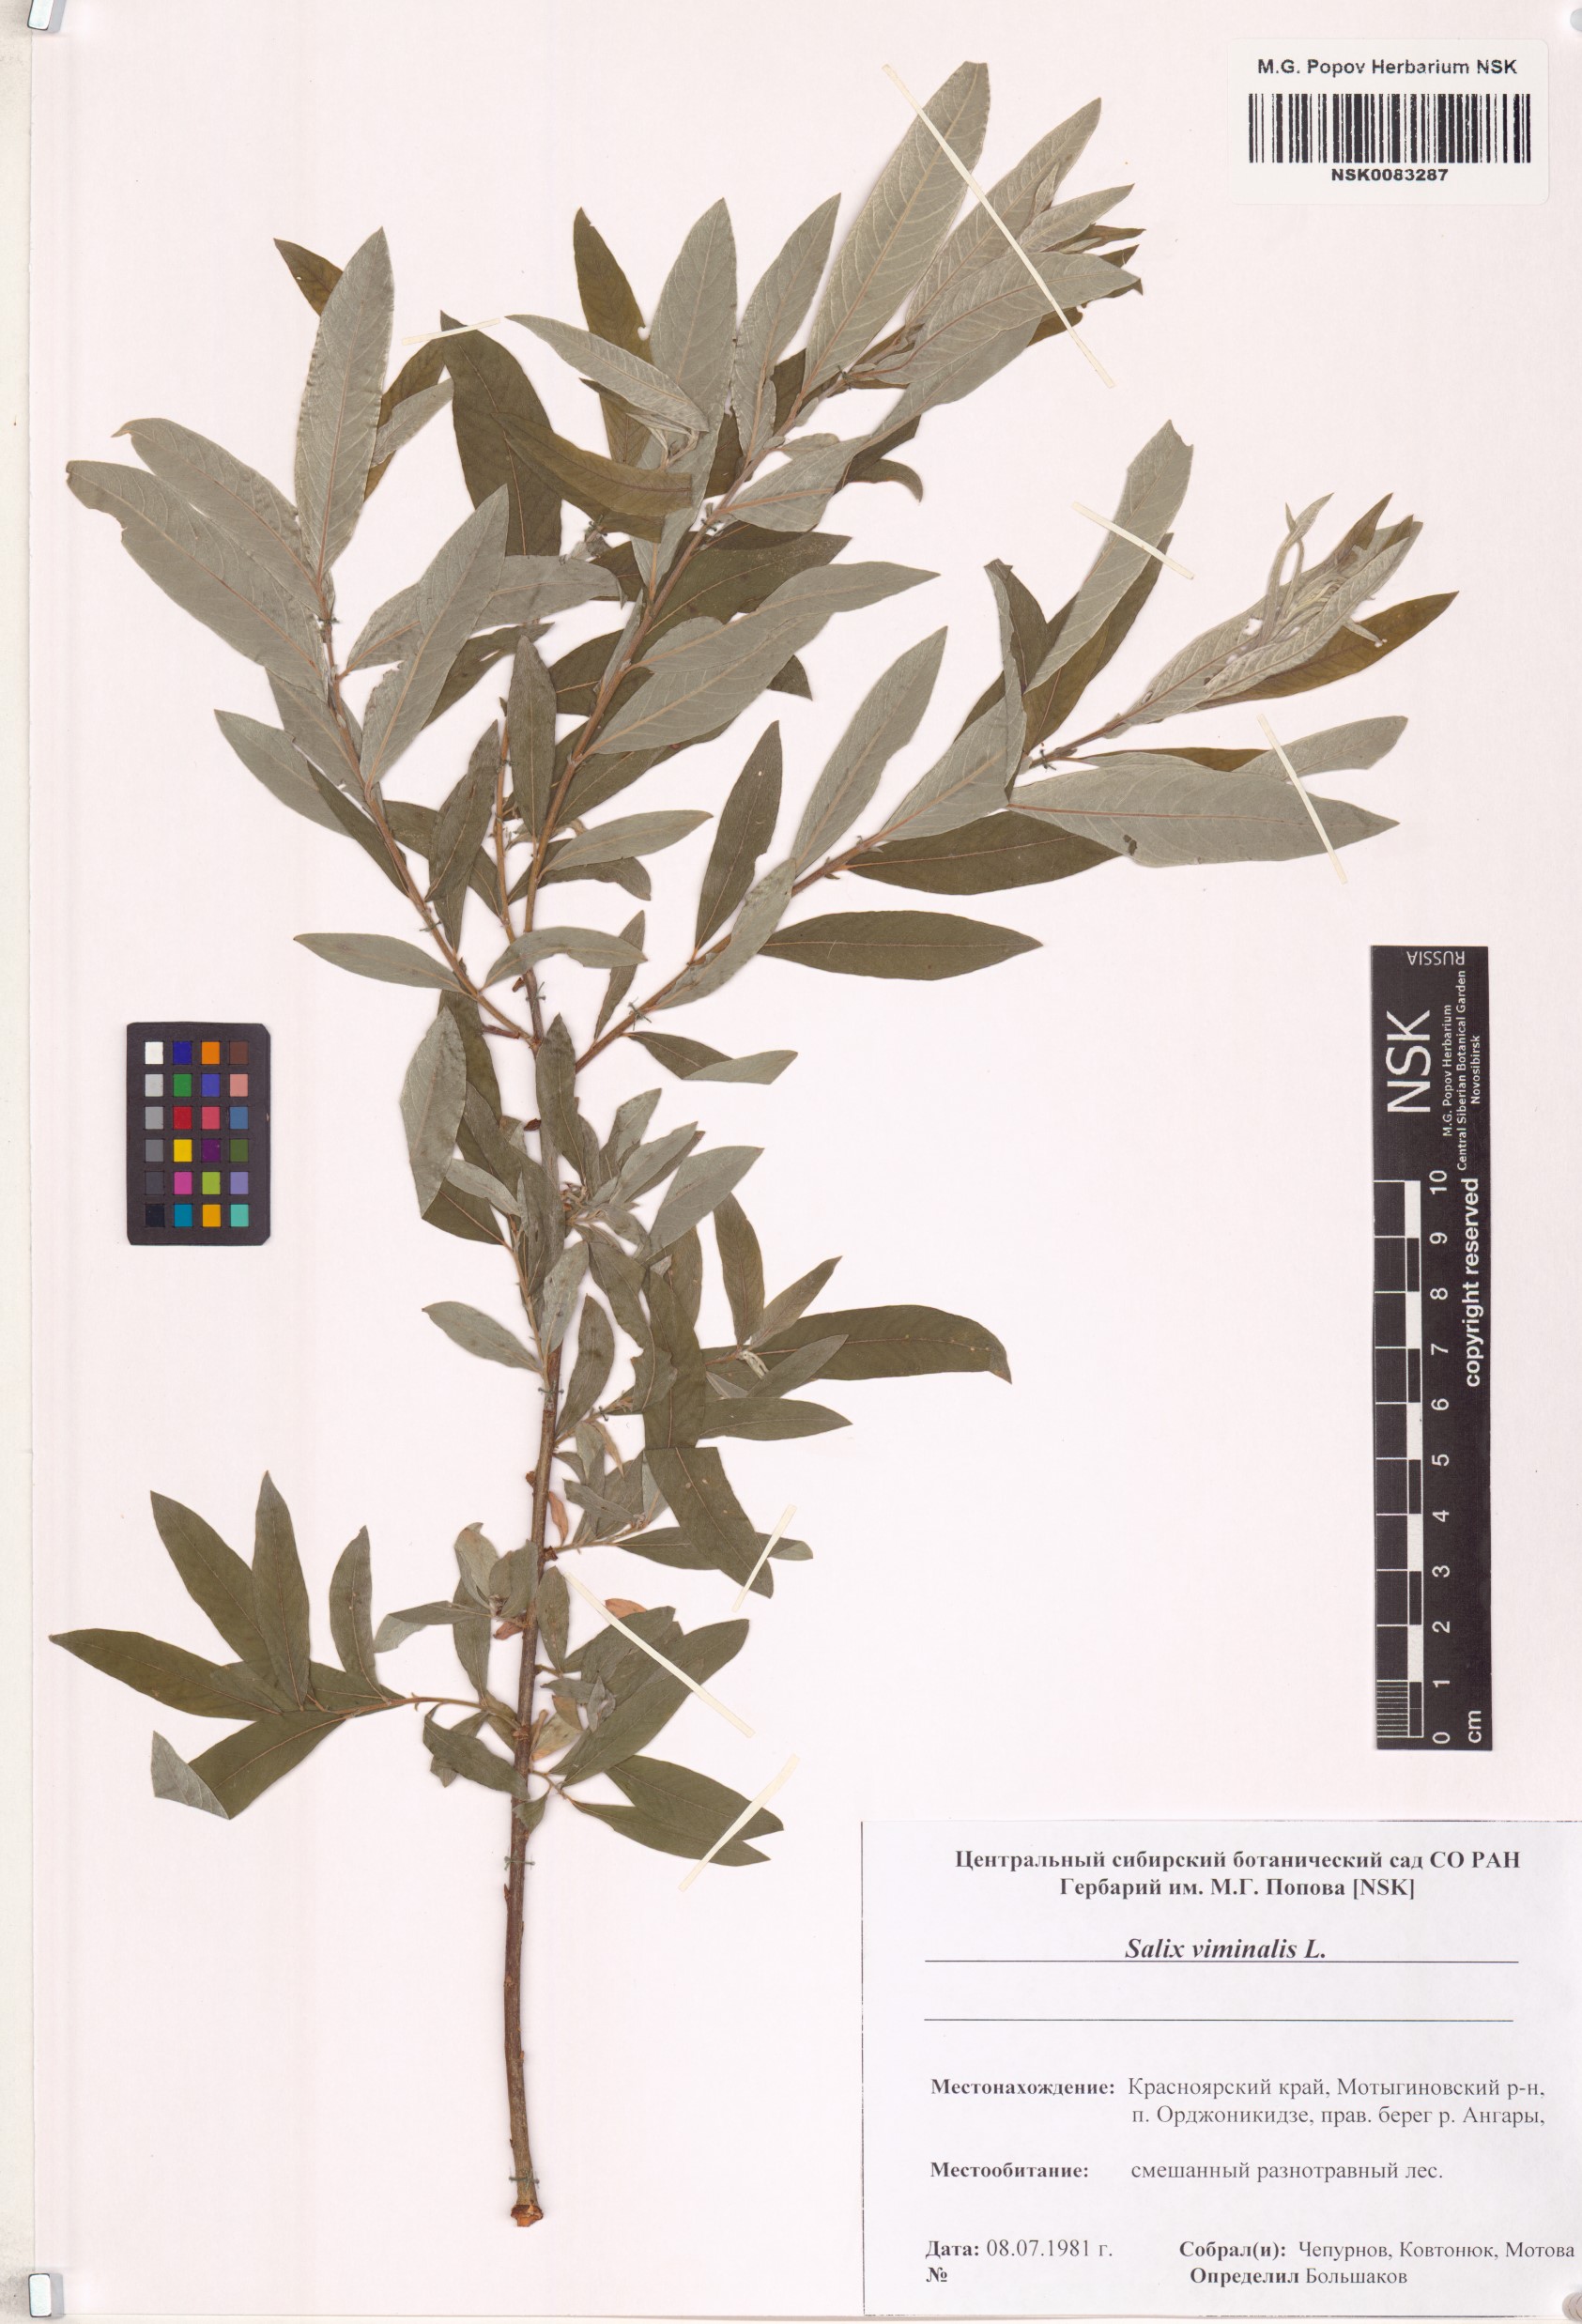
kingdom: Plantae
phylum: Tracheophyta
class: Magnoliopsida
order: Malpighiales
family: Salicaceae
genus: Salix
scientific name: Salix viminalis
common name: Osier
